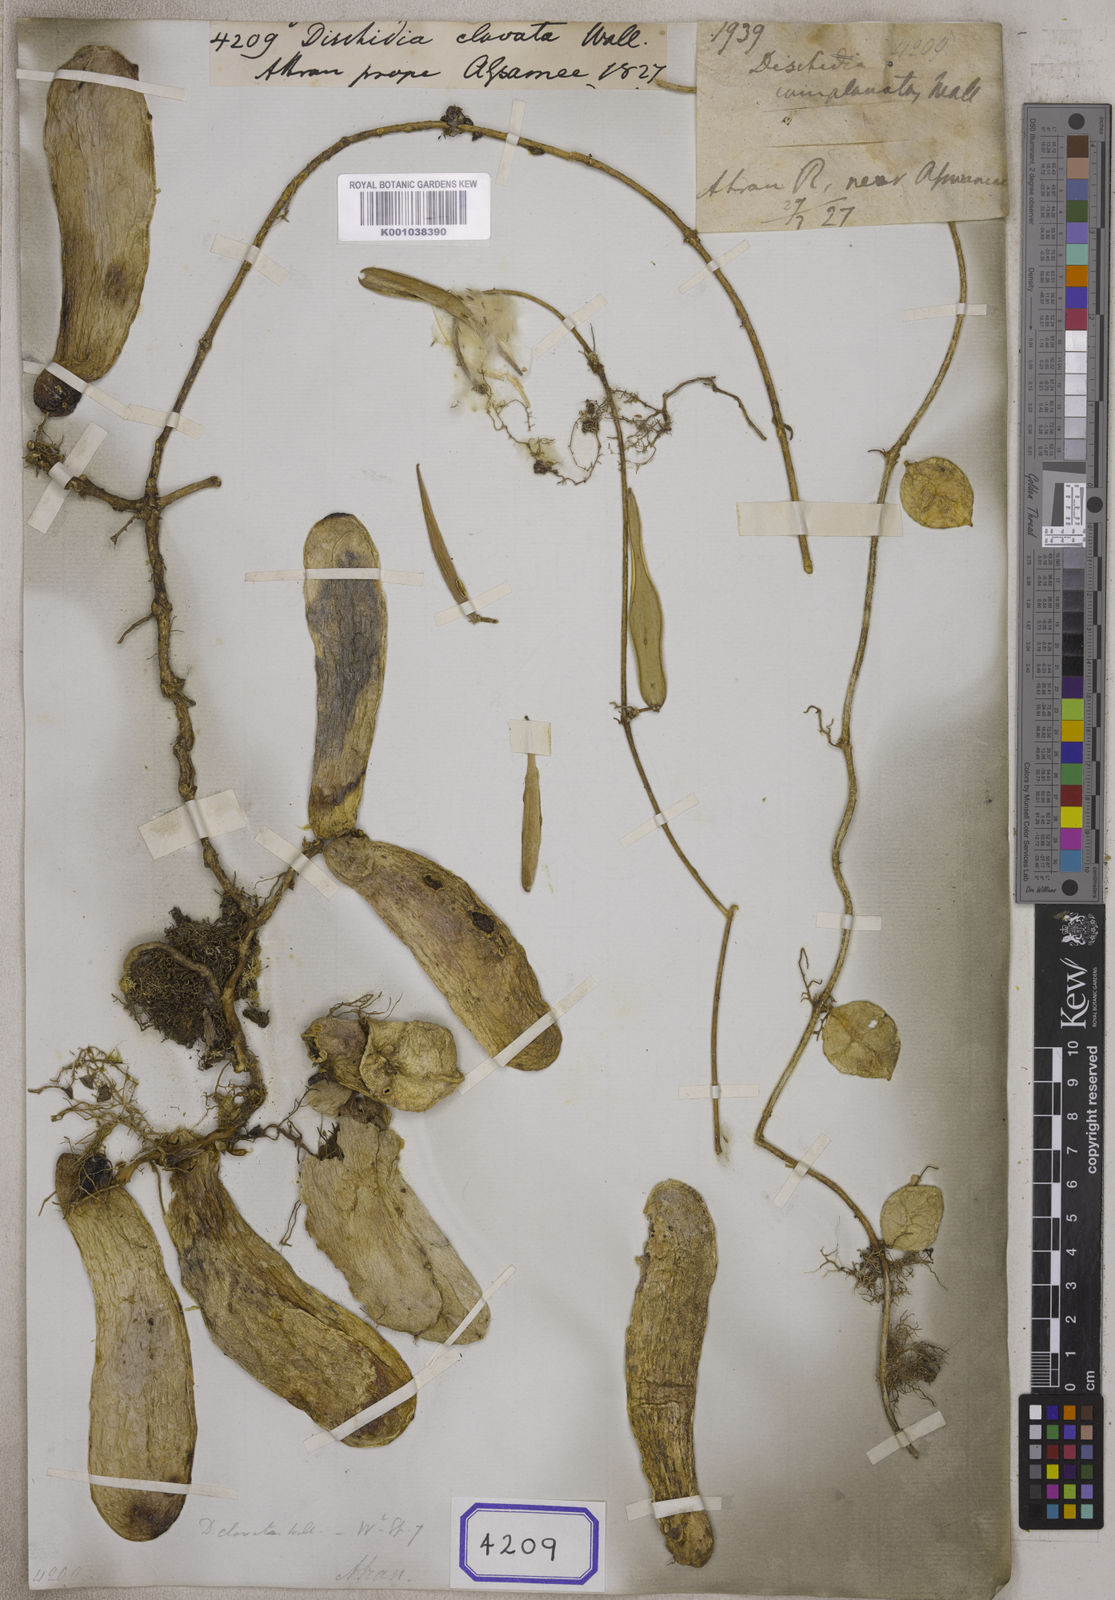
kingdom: Plantae
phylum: Tracheophyta
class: Magnoliopsida
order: Gentianales
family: Apocynaceae
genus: Dischidia
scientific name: Dischidia major
